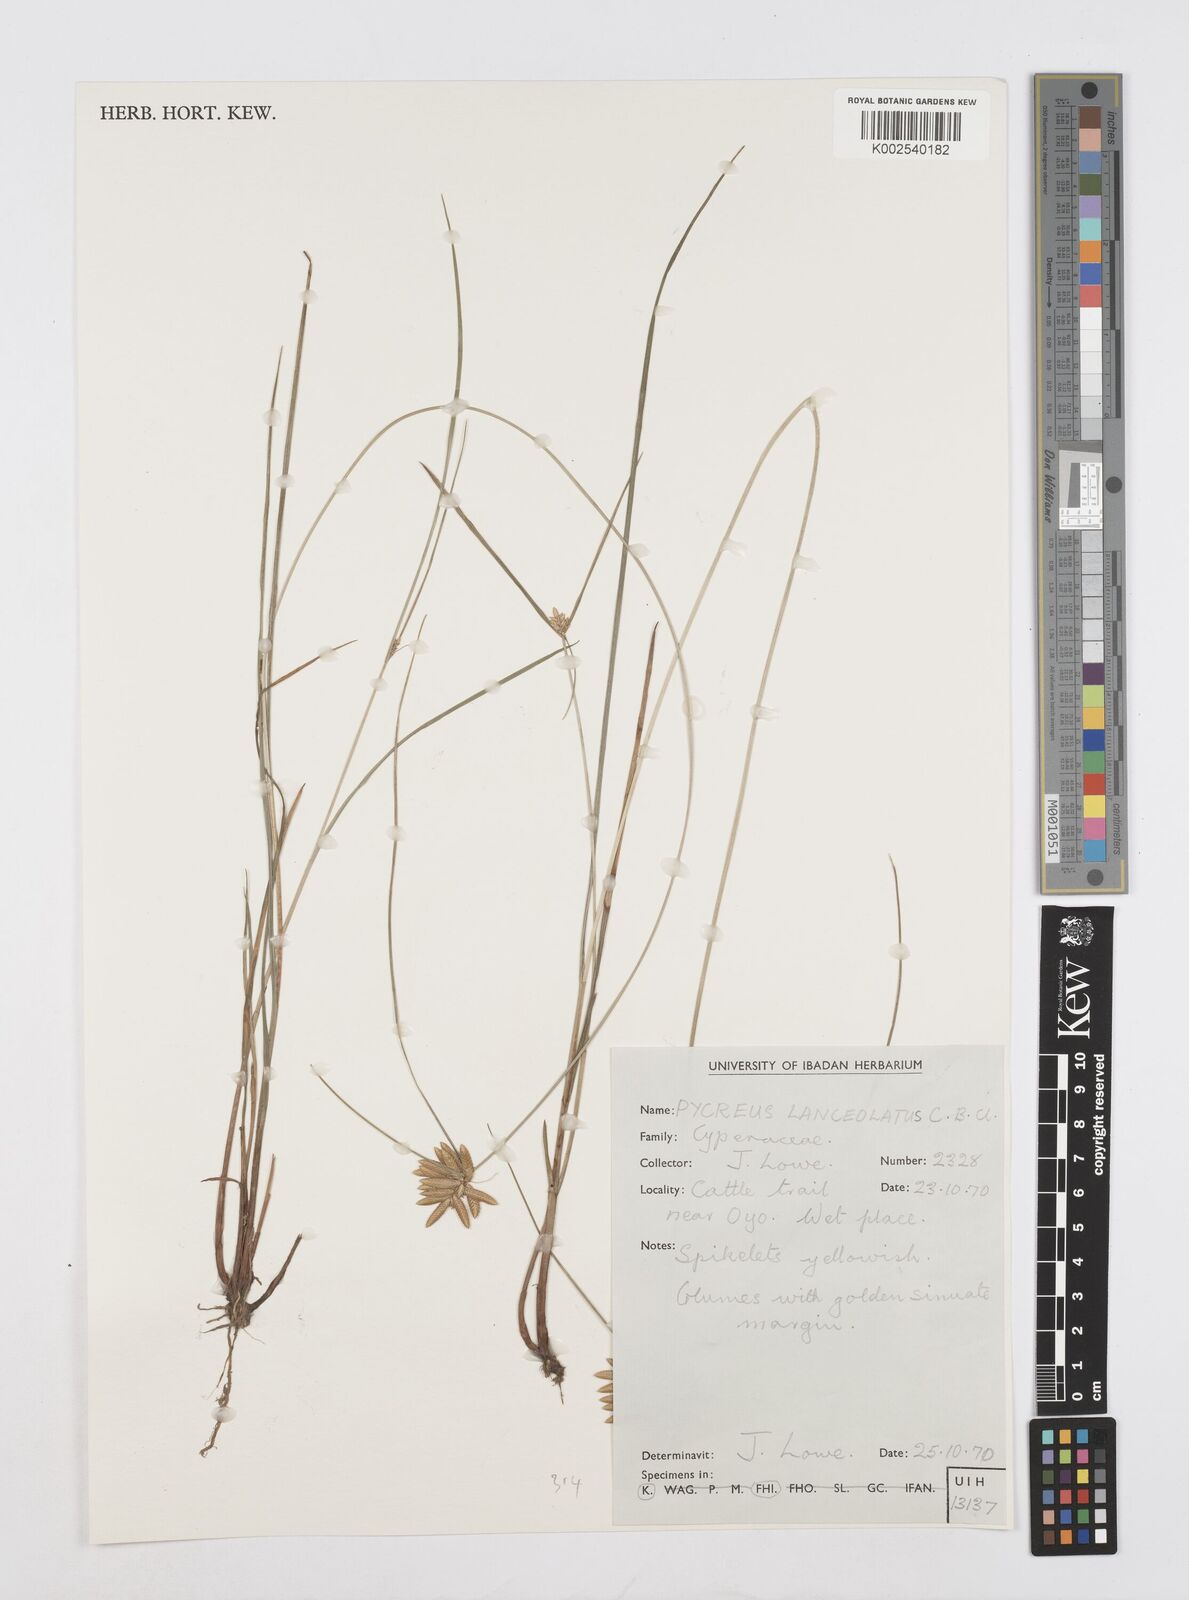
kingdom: Plantae
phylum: Tracheophyta
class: Liliopsida
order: Poales
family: Cyperaceae
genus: Cyperus
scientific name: Cyperus
